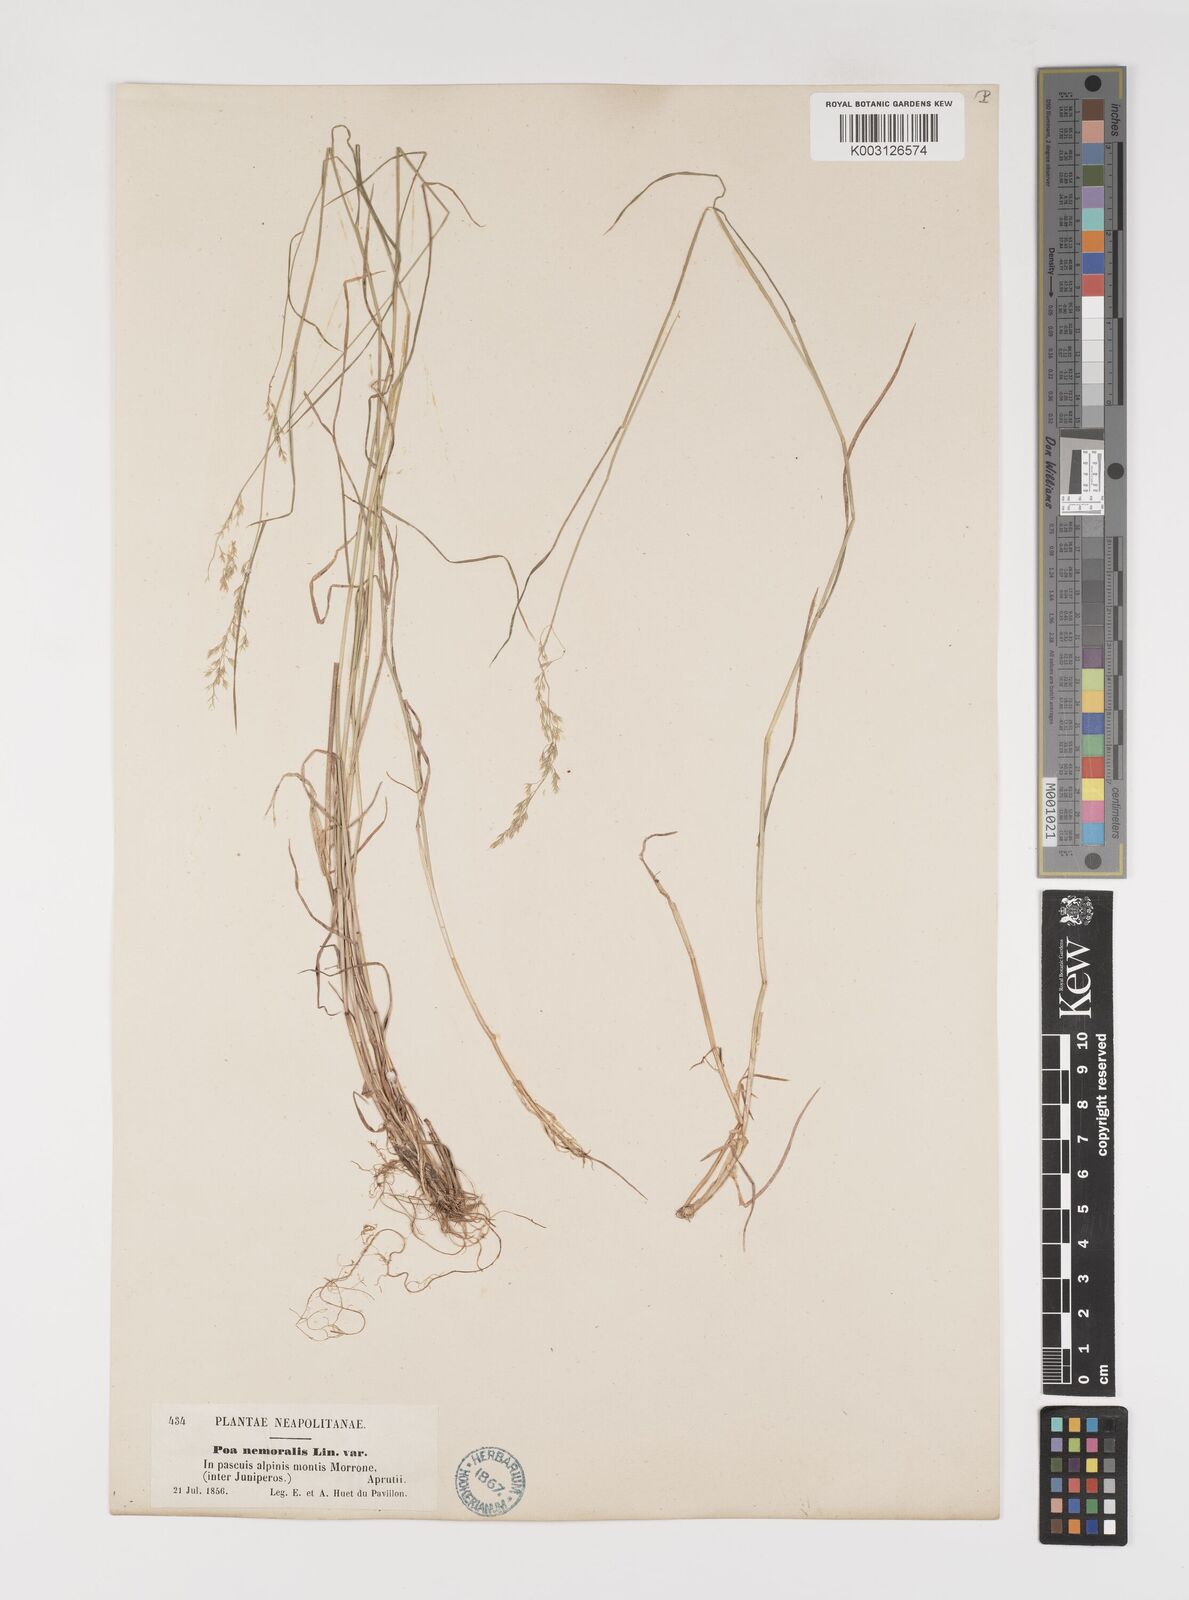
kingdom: Plantae
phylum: Tracheophyta
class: Liliopsida
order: Poales
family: Poaceae
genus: Poa
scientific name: Poa nemoralis
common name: Wood bluegrass
